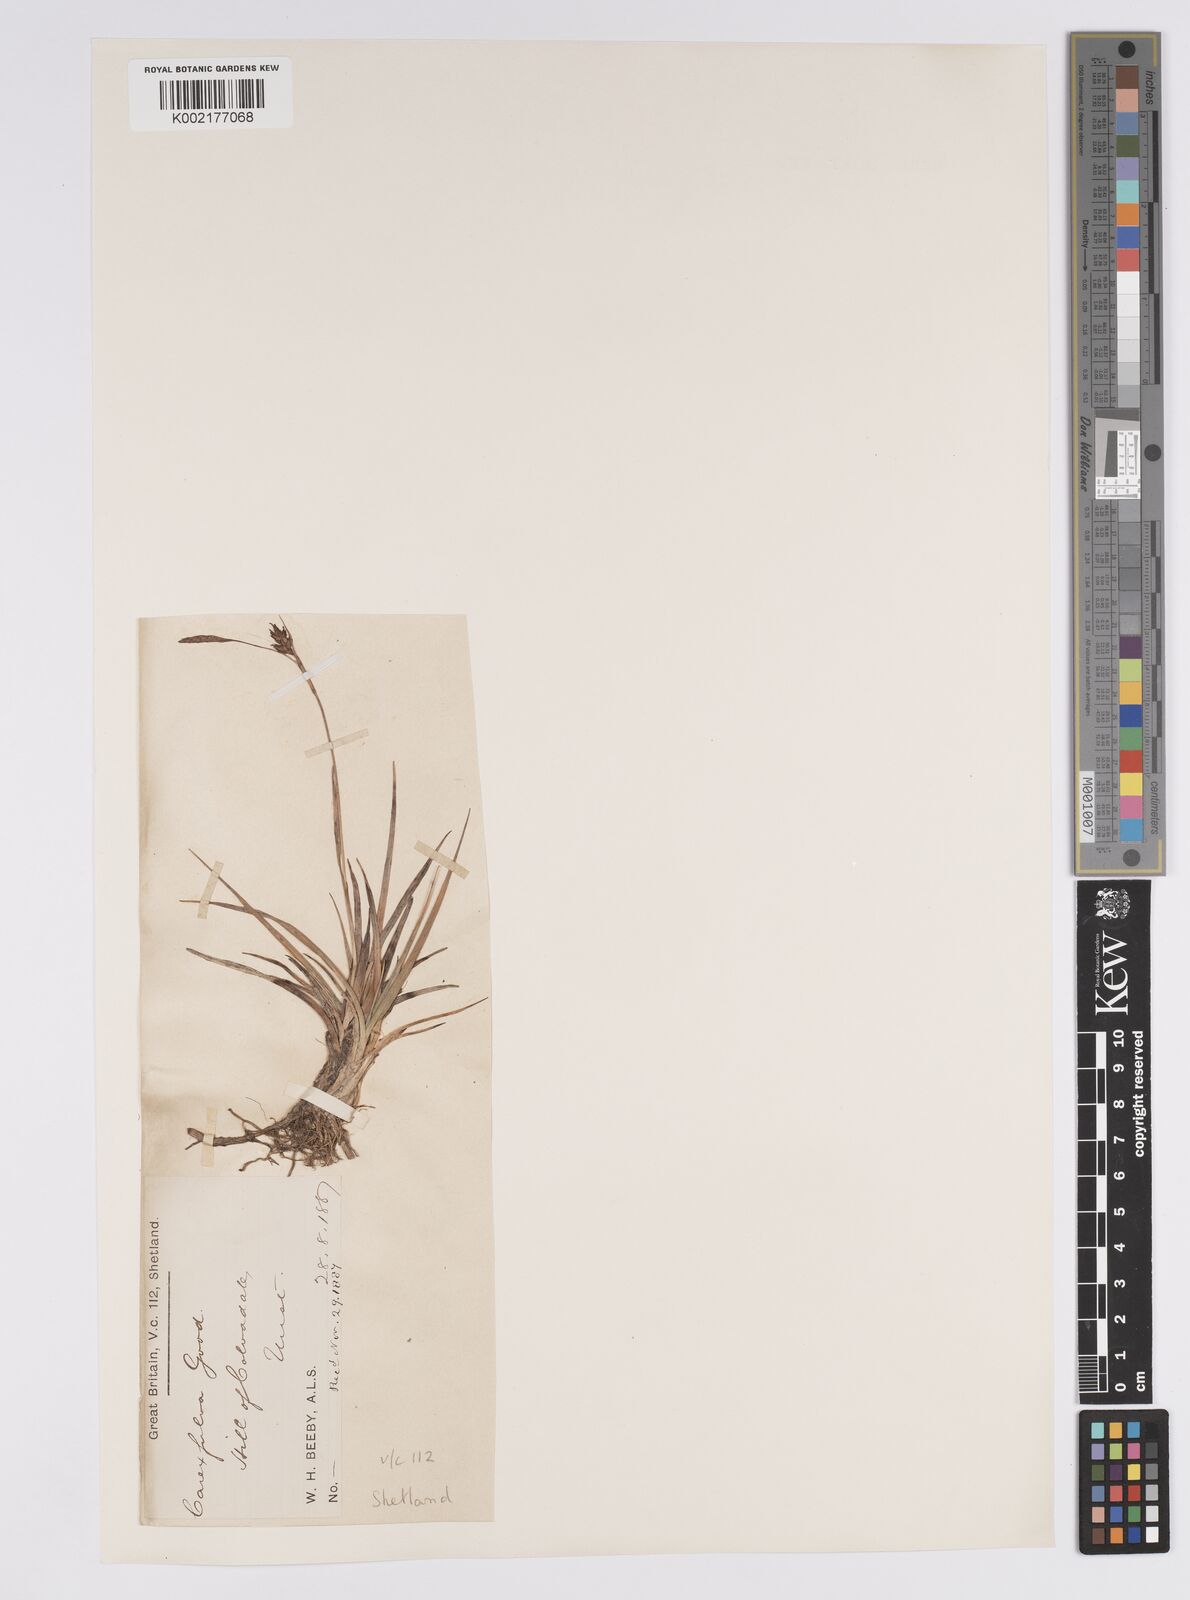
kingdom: Plantae
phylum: Tracheophyta
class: Liliopsida
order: Poales
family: Cyperaceae
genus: Carex
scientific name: Carex hostiana
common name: Tawny sedge
